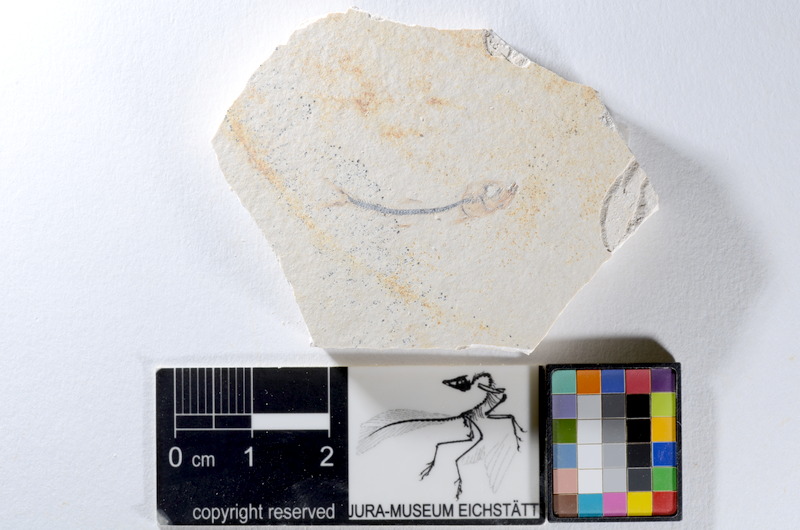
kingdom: Animalia
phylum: Chordata
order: Salmoniformes
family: Orthogonikleithridae
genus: Orthogonikleithrus
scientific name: Orthogonikleithrus hoelli
